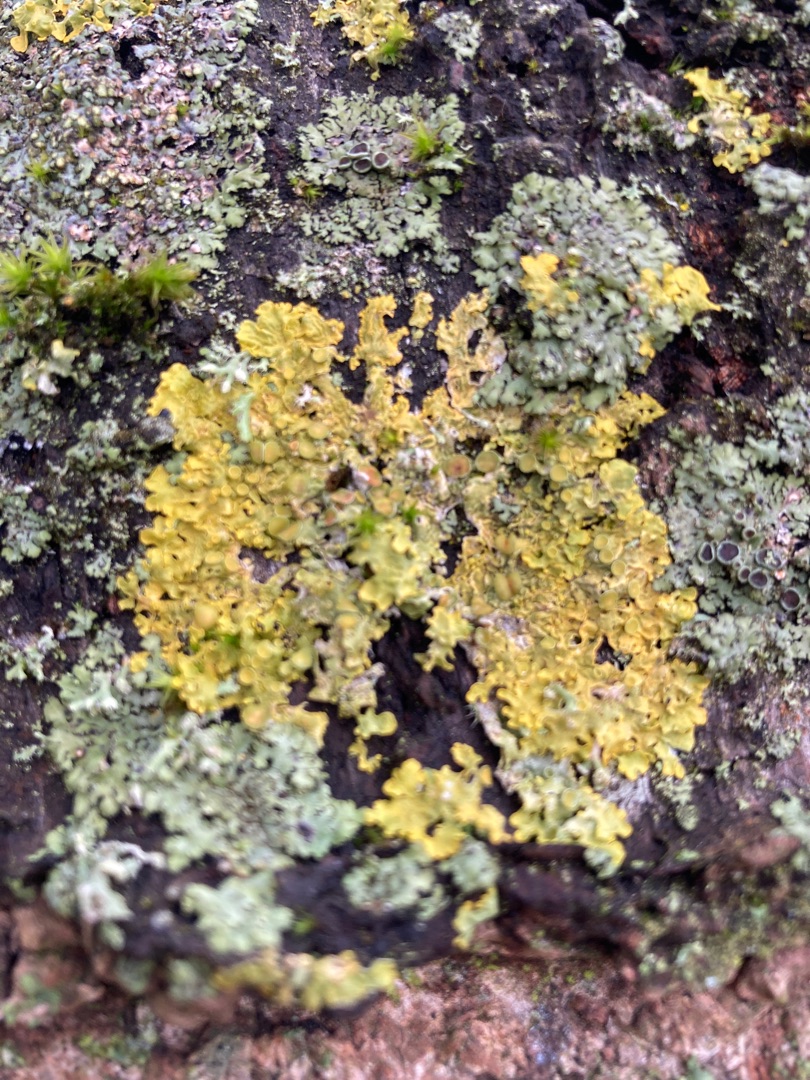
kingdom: Fungi
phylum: Ascomycota
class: Lecanoromycetes
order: Teloschistales
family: Teloschistaceae
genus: Xanthoria
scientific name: Xanthoria parietina
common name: Almindelig væggelav
